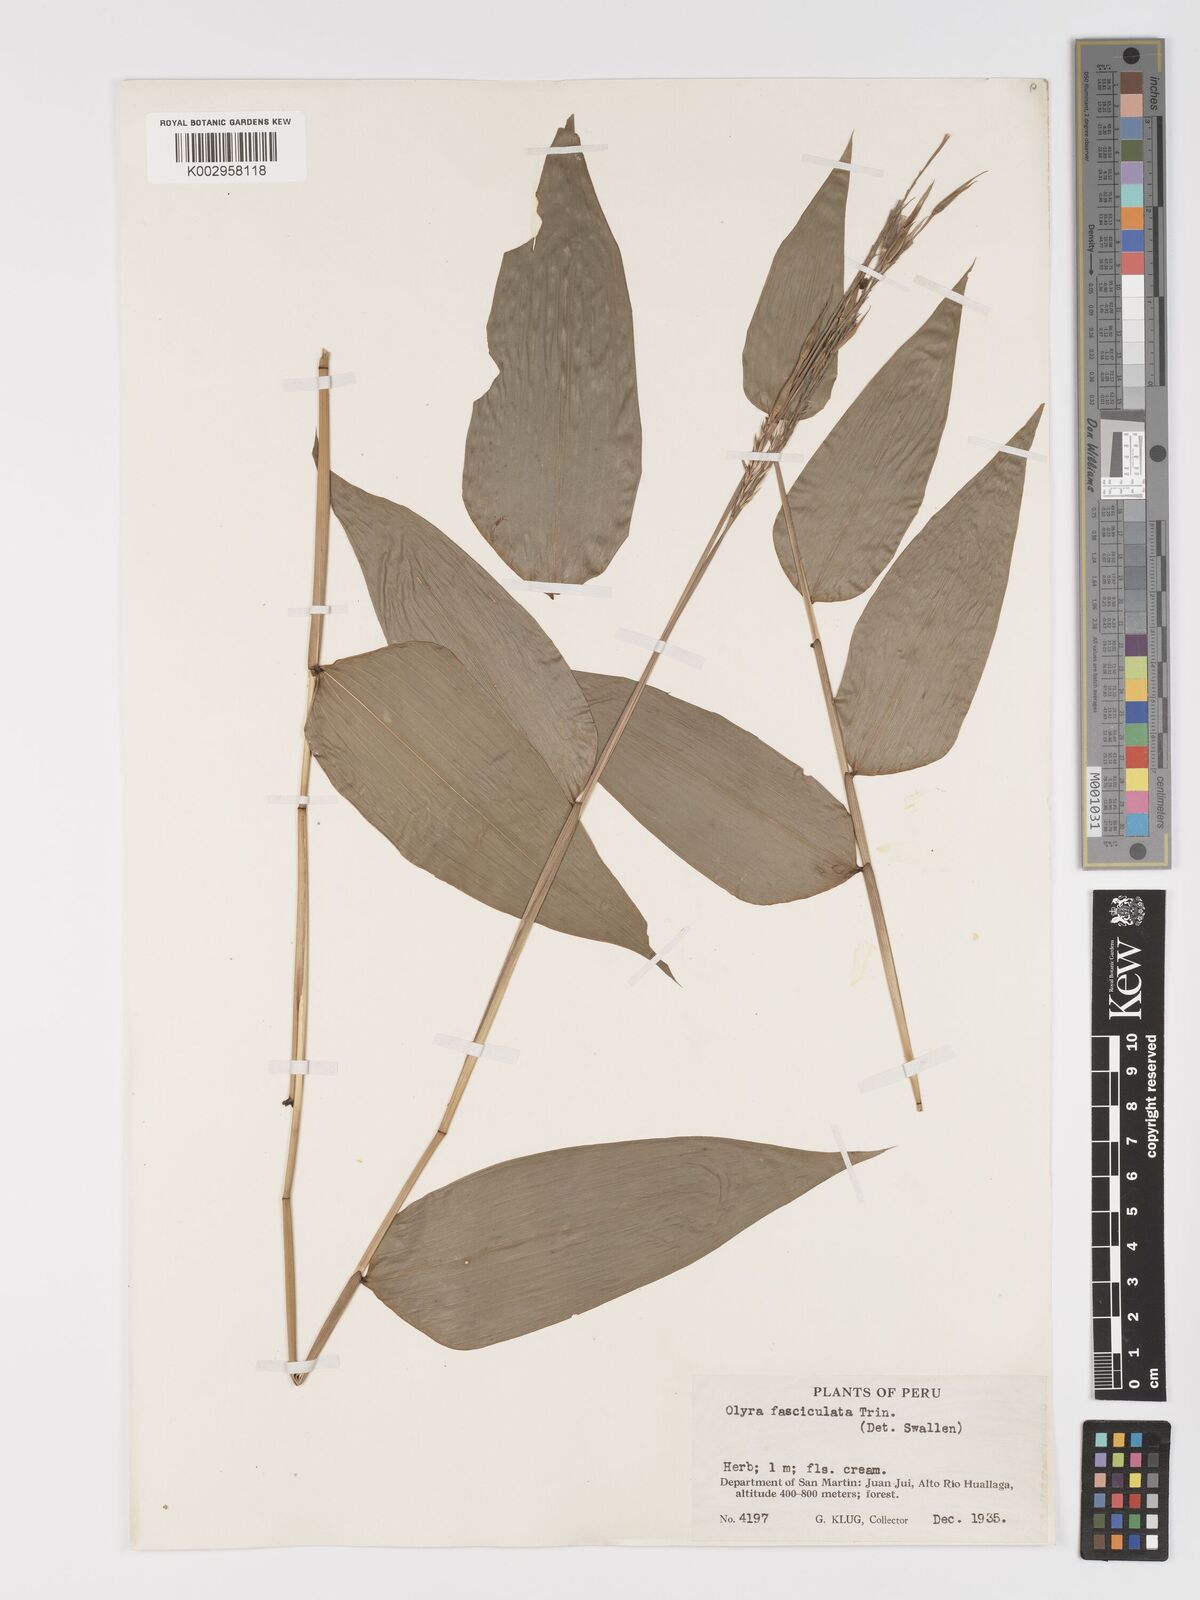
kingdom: Plantae
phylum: Tracheophyta
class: Liliopsida
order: Poales
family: Poaceae
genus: Olyra
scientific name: Olyra fasciculata
